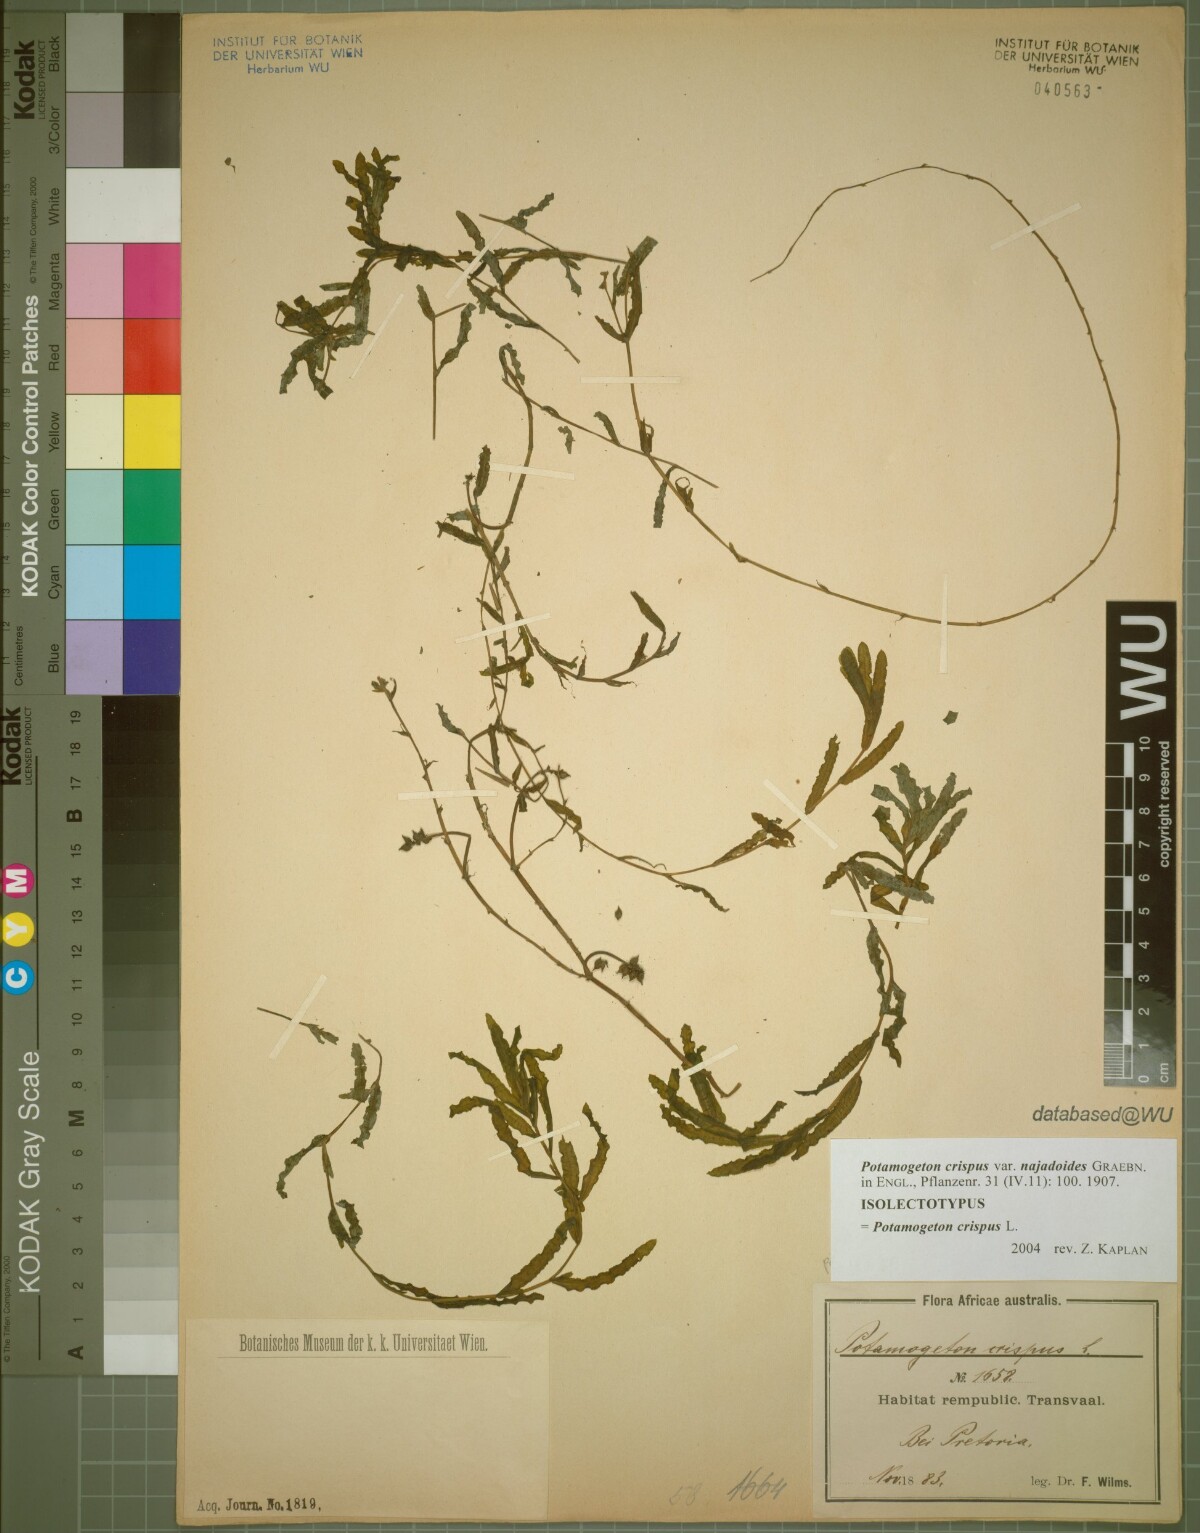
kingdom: Plantae
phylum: Tracheophyta
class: Liliopsida
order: Alismatales
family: Potamogetonaceae
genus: Potamogeton
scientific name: Potamogeton crispus
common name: Curled pondweed
